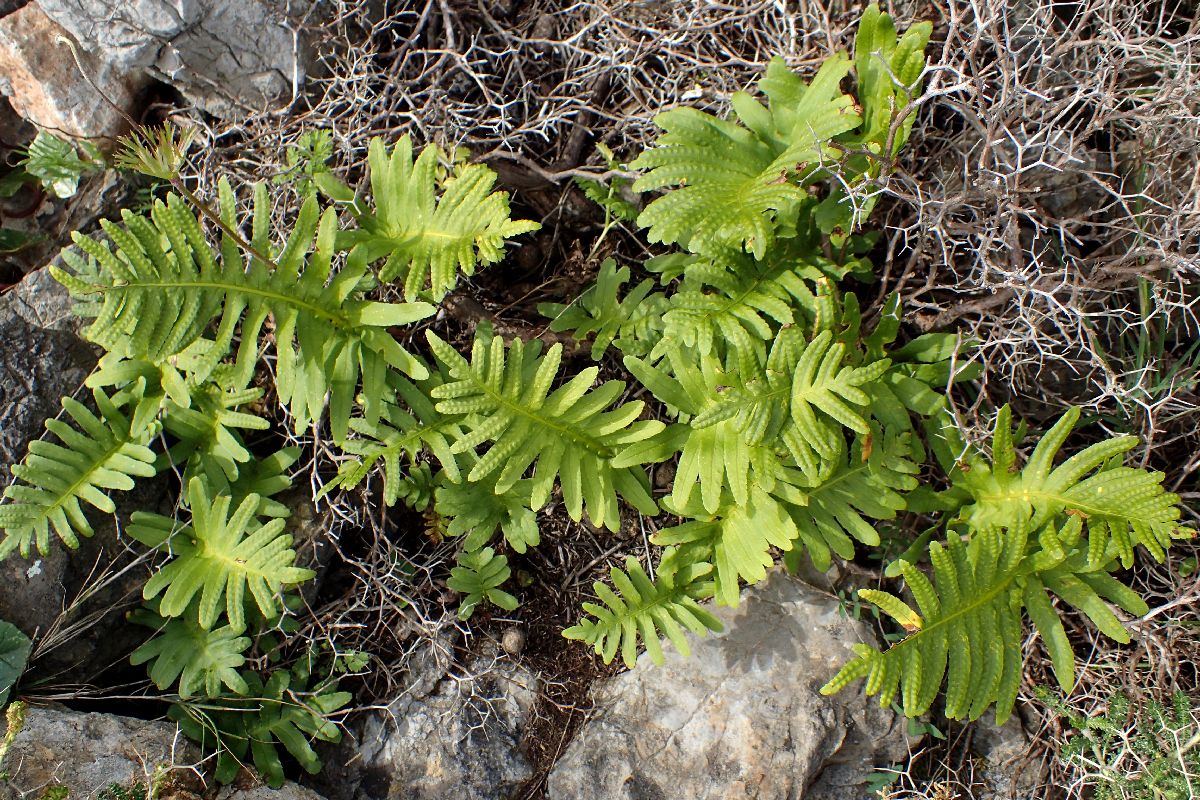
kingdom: Plantae
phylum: Tracheophyta
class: Polypodiopsida
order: Polypodiales
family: Polypodiaceae
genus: Polypodium
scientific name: Polypodium cambricum
